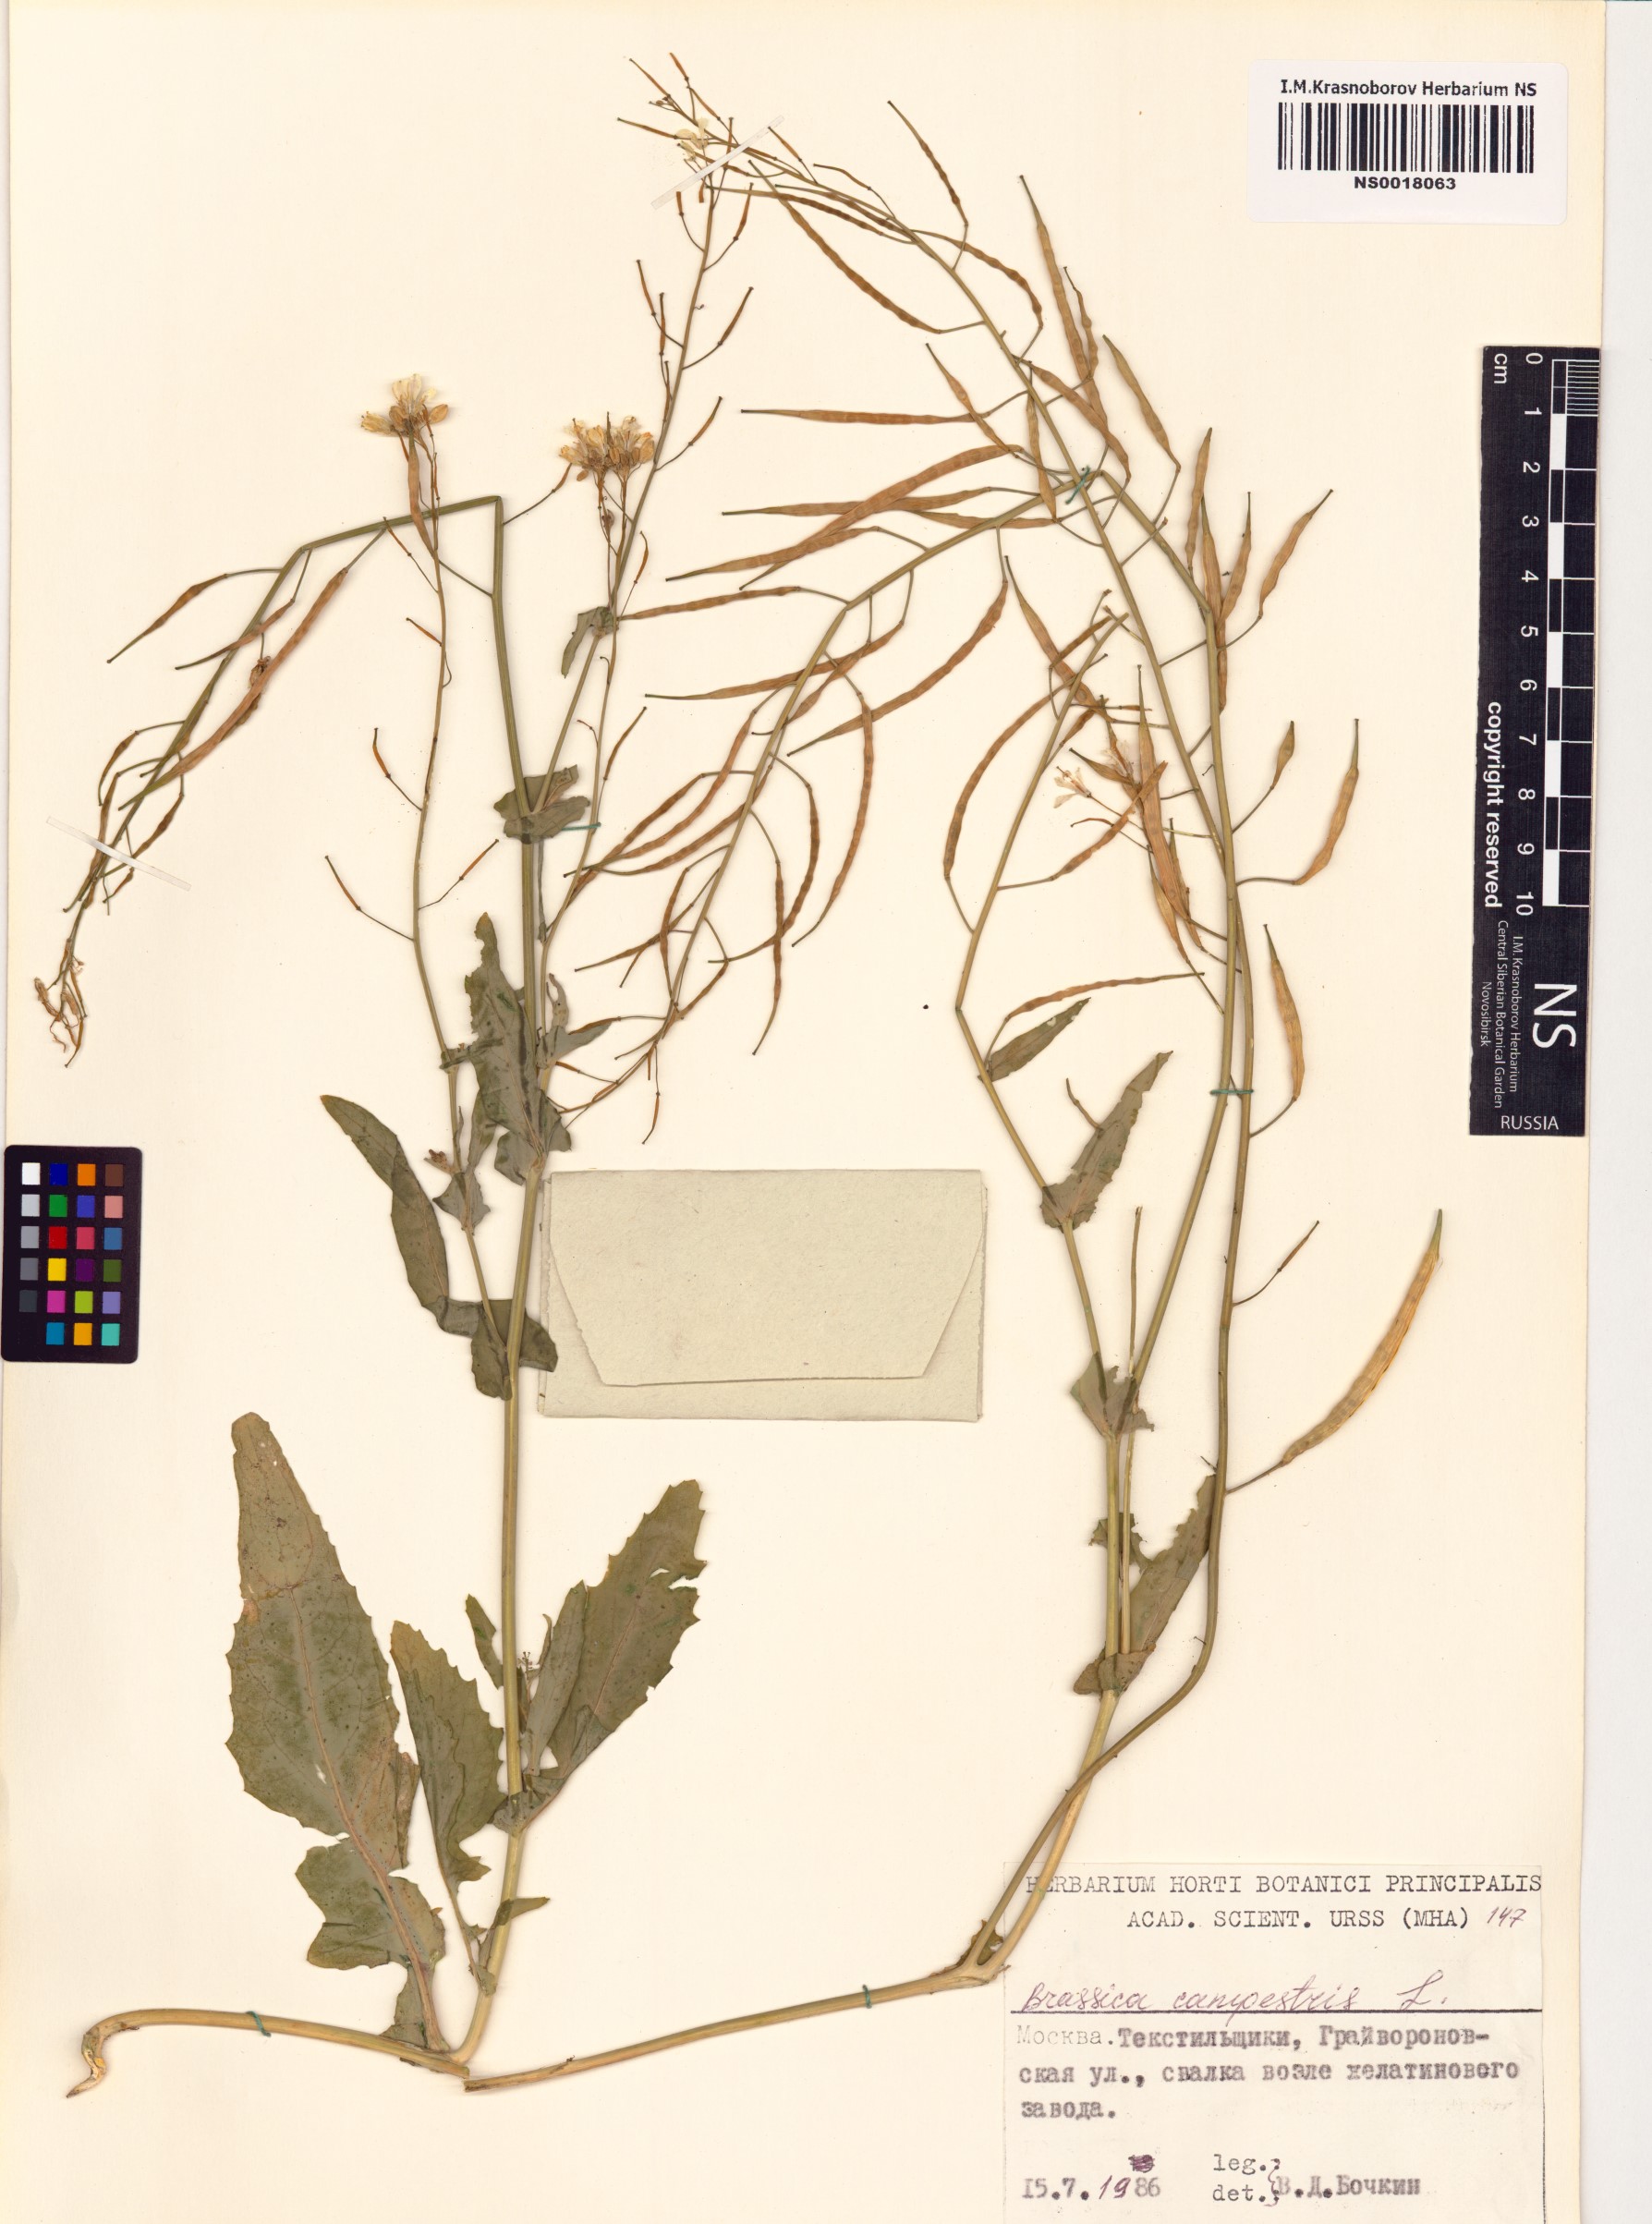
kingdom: Plantae
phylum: Tracheophyta
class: Magnoliopsida
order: Brassicales
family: Brassicaceae
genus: Brassica
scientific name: Brassica rapa
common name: Field mustard
